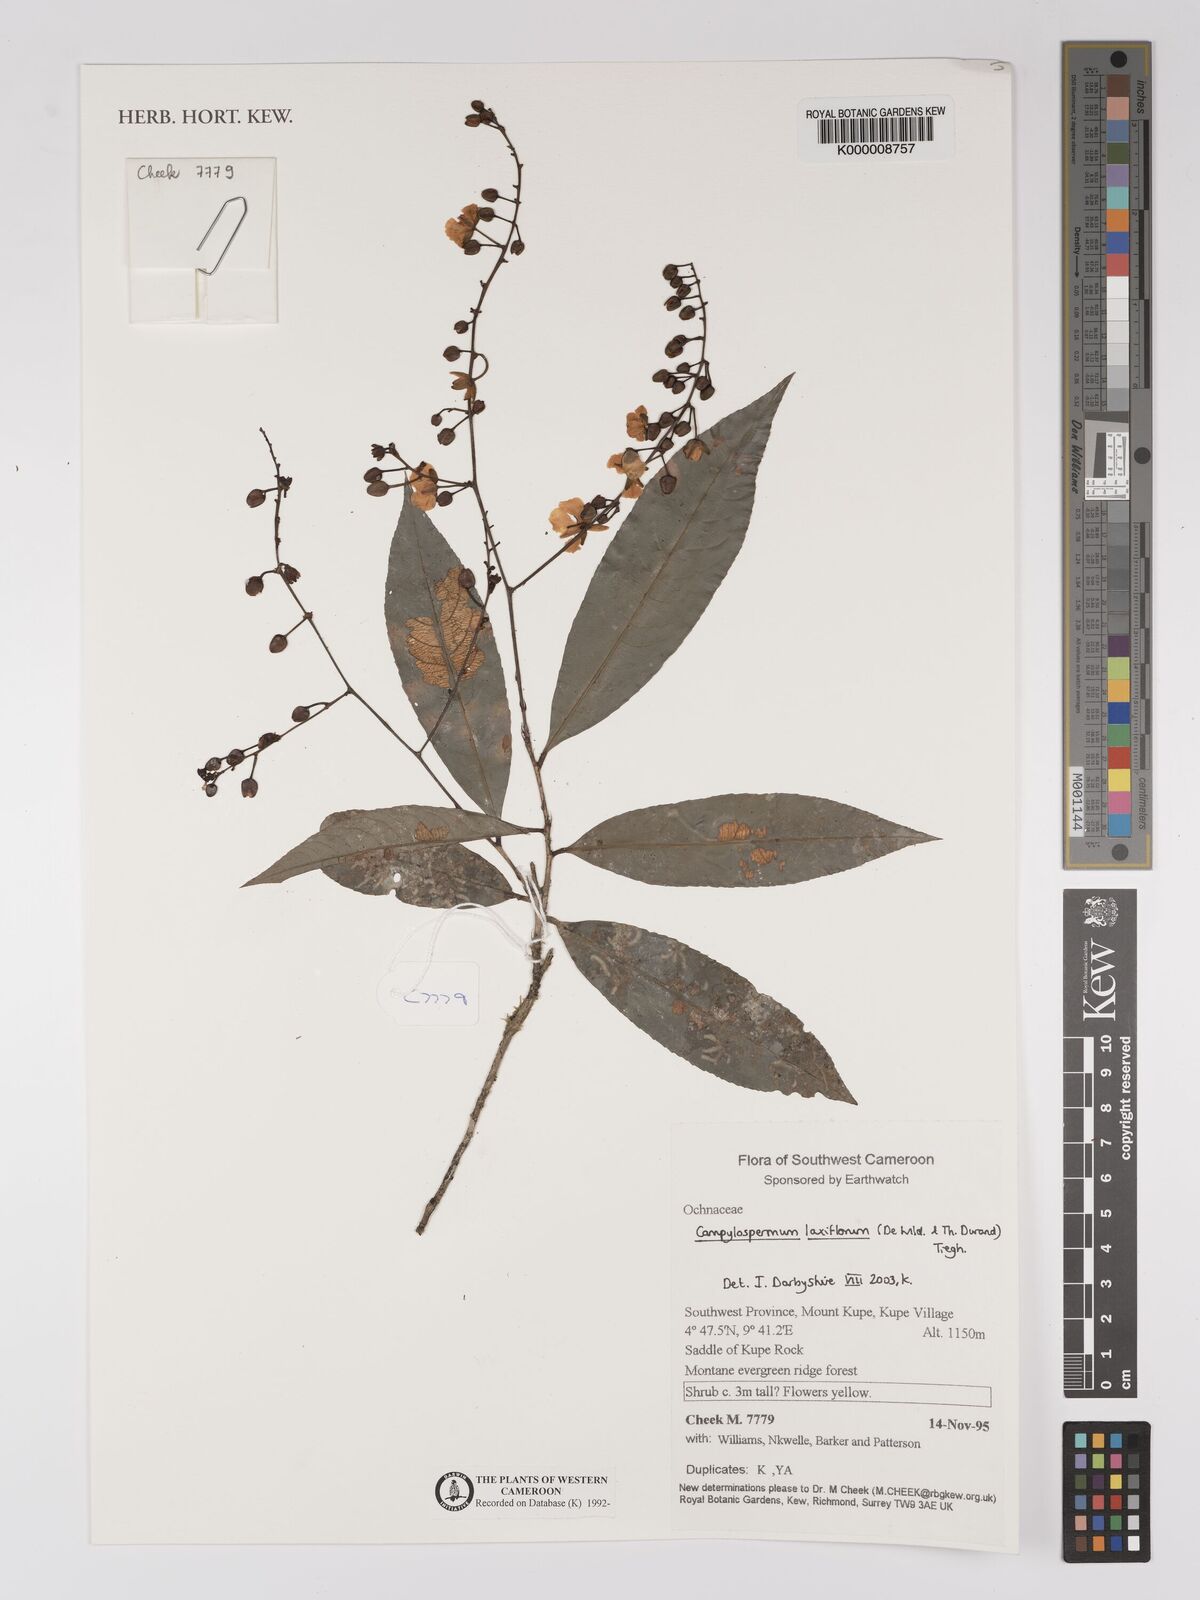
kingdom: Plantae
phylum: Tracheophyta
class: Magnoliopsida
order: Malpighiales
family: Ochnaceae
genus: Campylospermum
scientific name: Campylospermum laxiflorum
